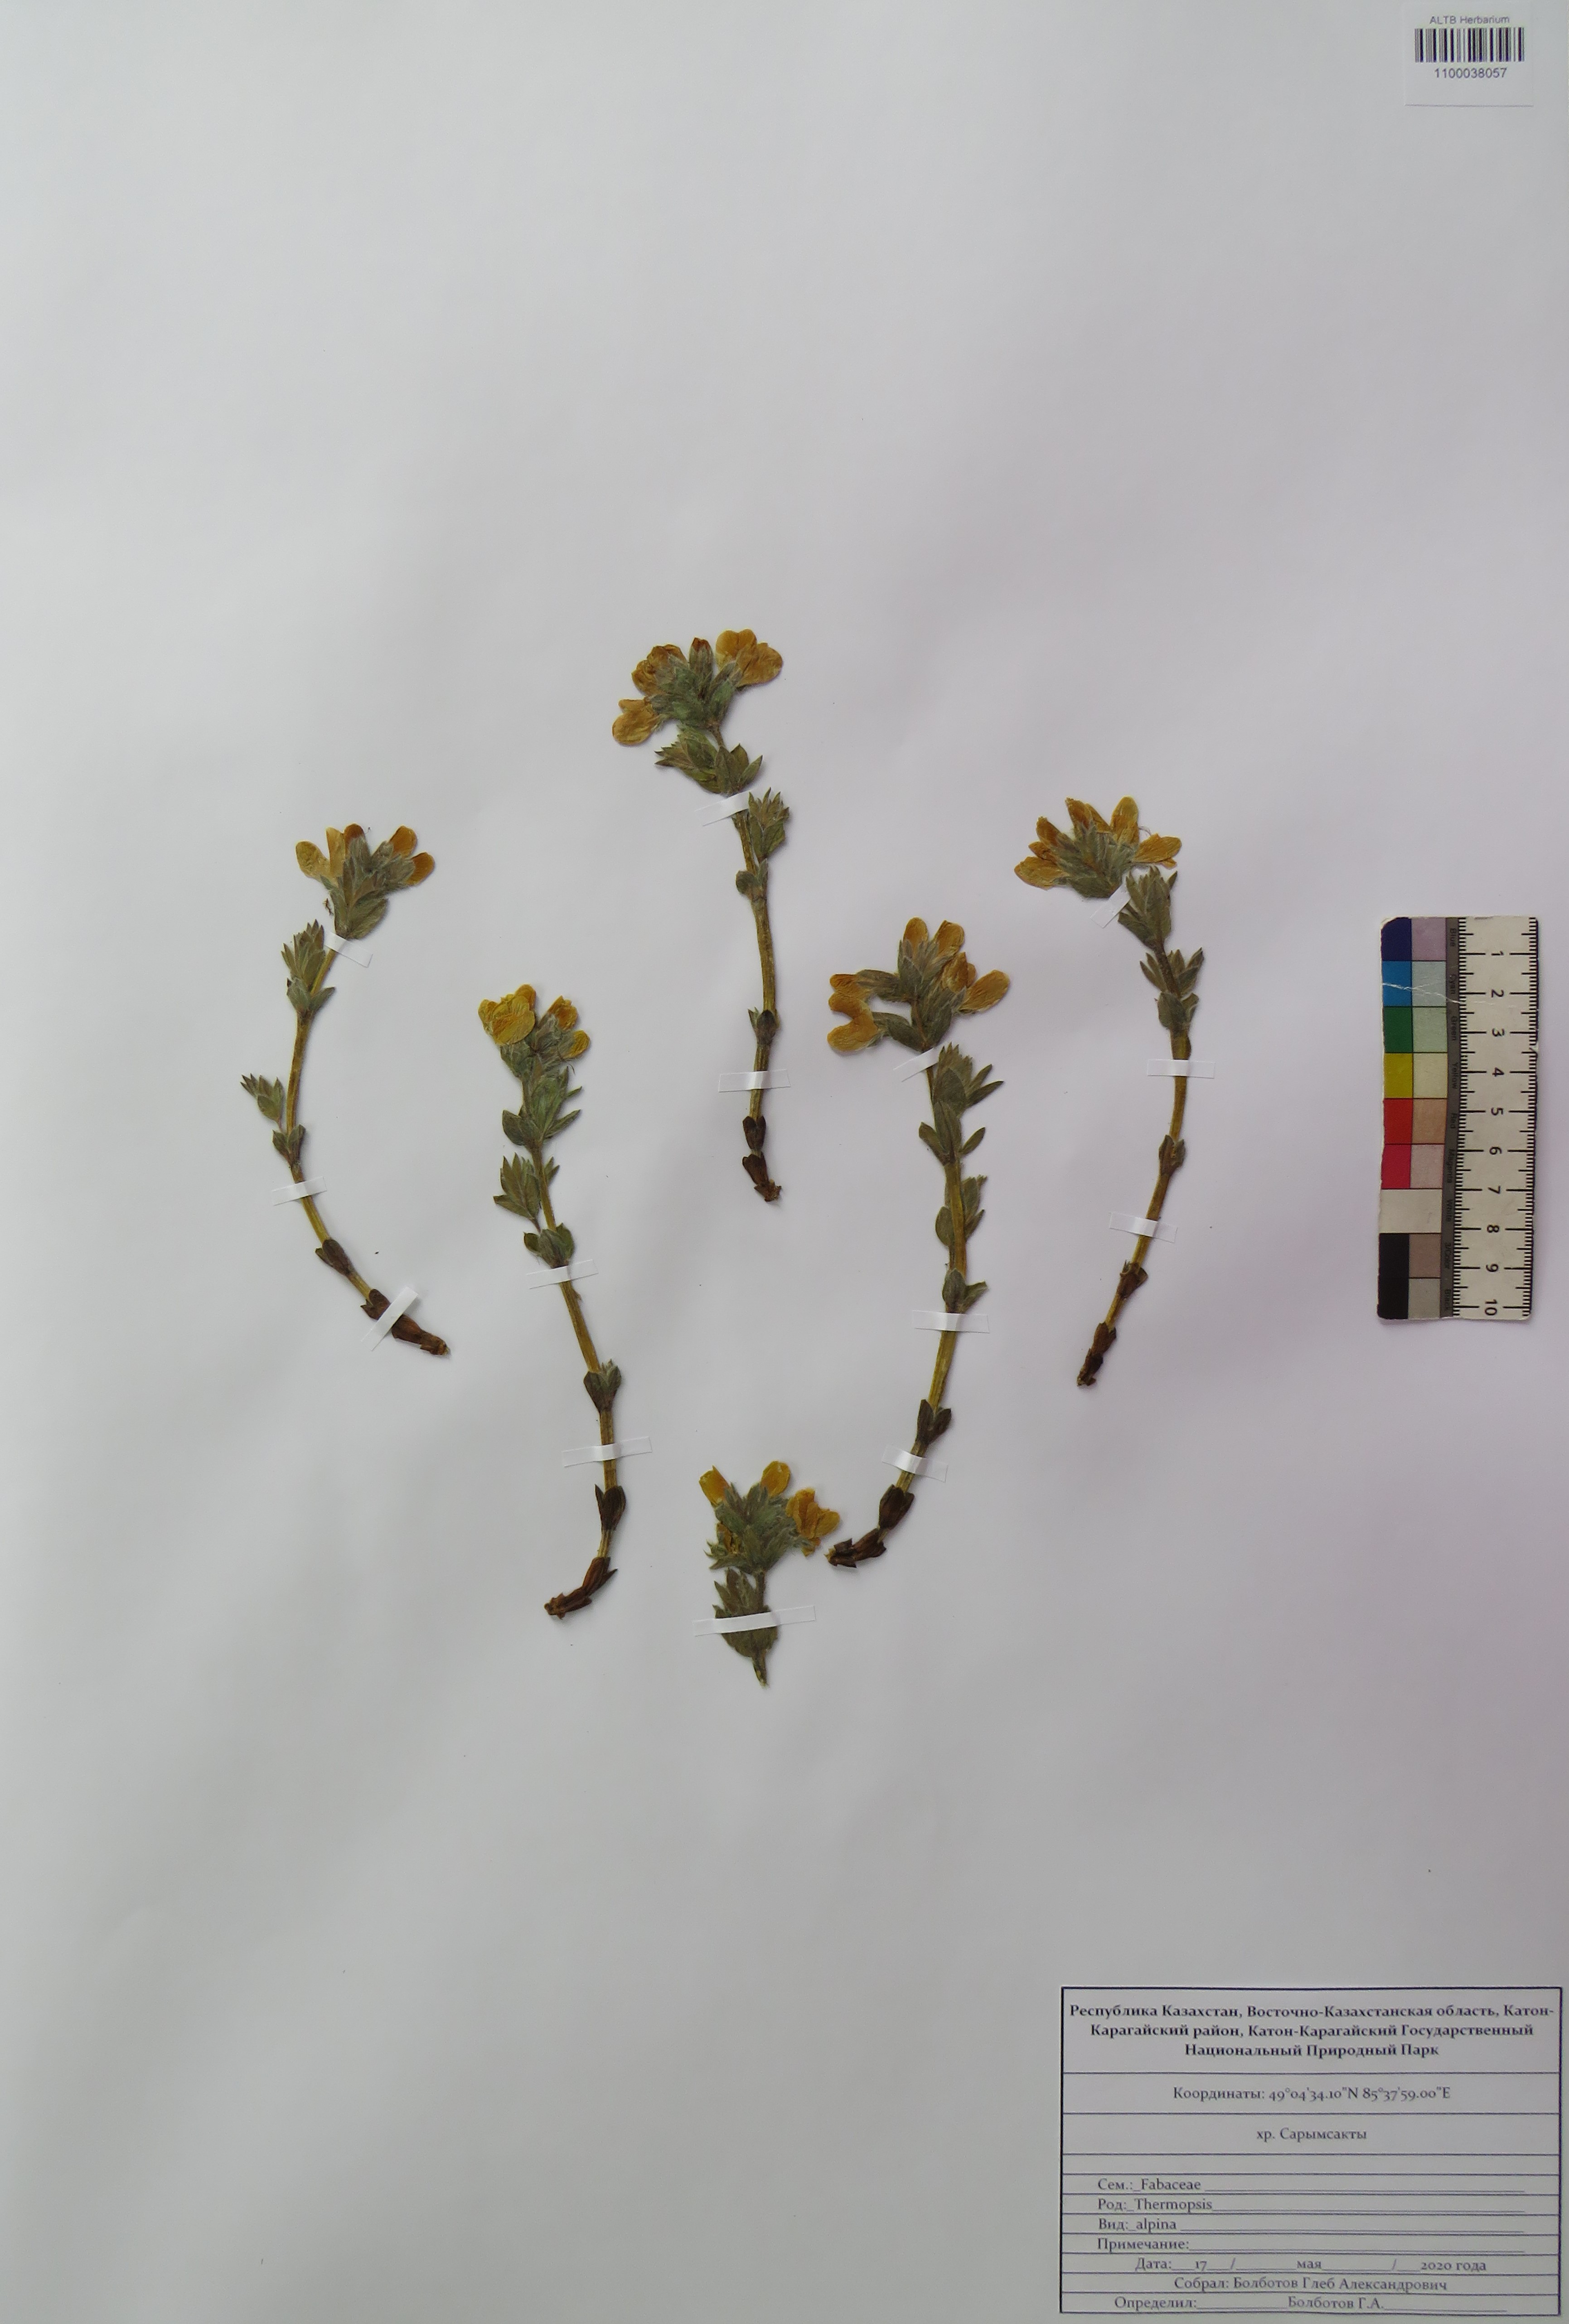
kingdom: Plantae
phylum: Tracheophyta
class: Magnoliopsida
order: Fabales
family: Fabaceae
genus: Thermopsis
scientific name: Thermopsis alpina
